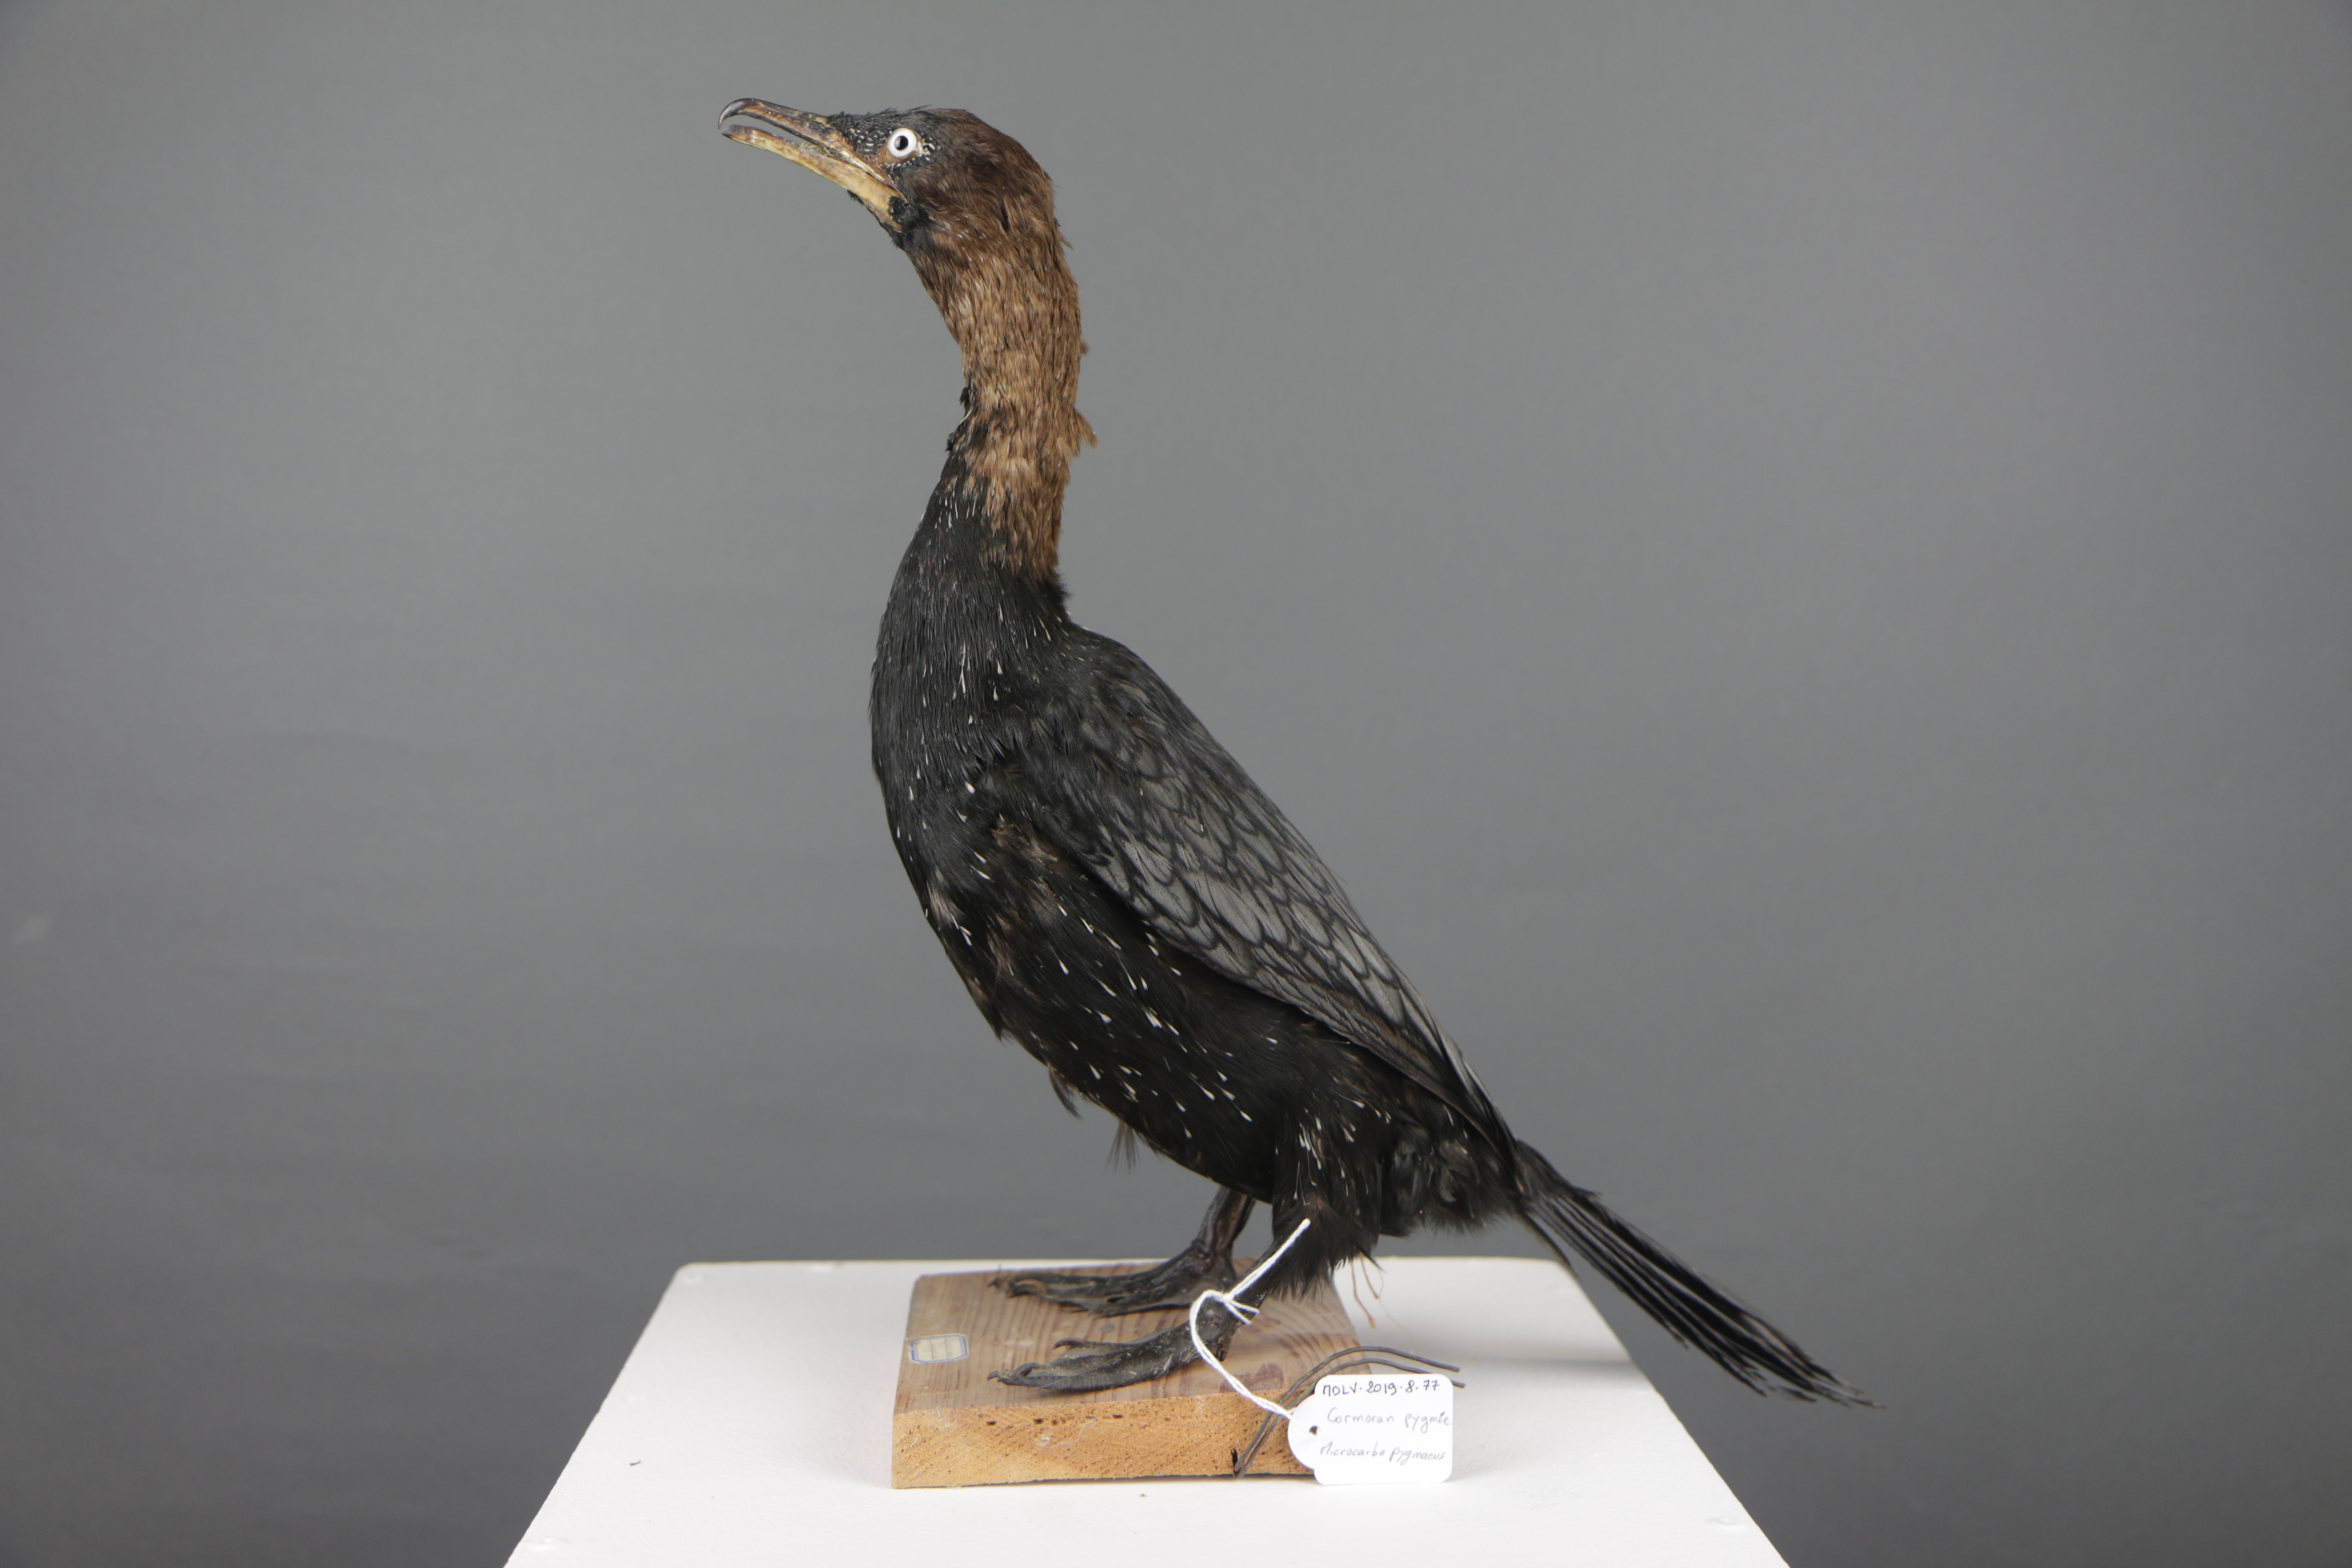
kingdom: Animalia
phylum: Chordata
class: Aves
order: Suliformes
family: Phalacrocoracidae
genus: Microcarbo
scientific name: Microcarbo pygmaeus
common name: Pygmy cormorant
